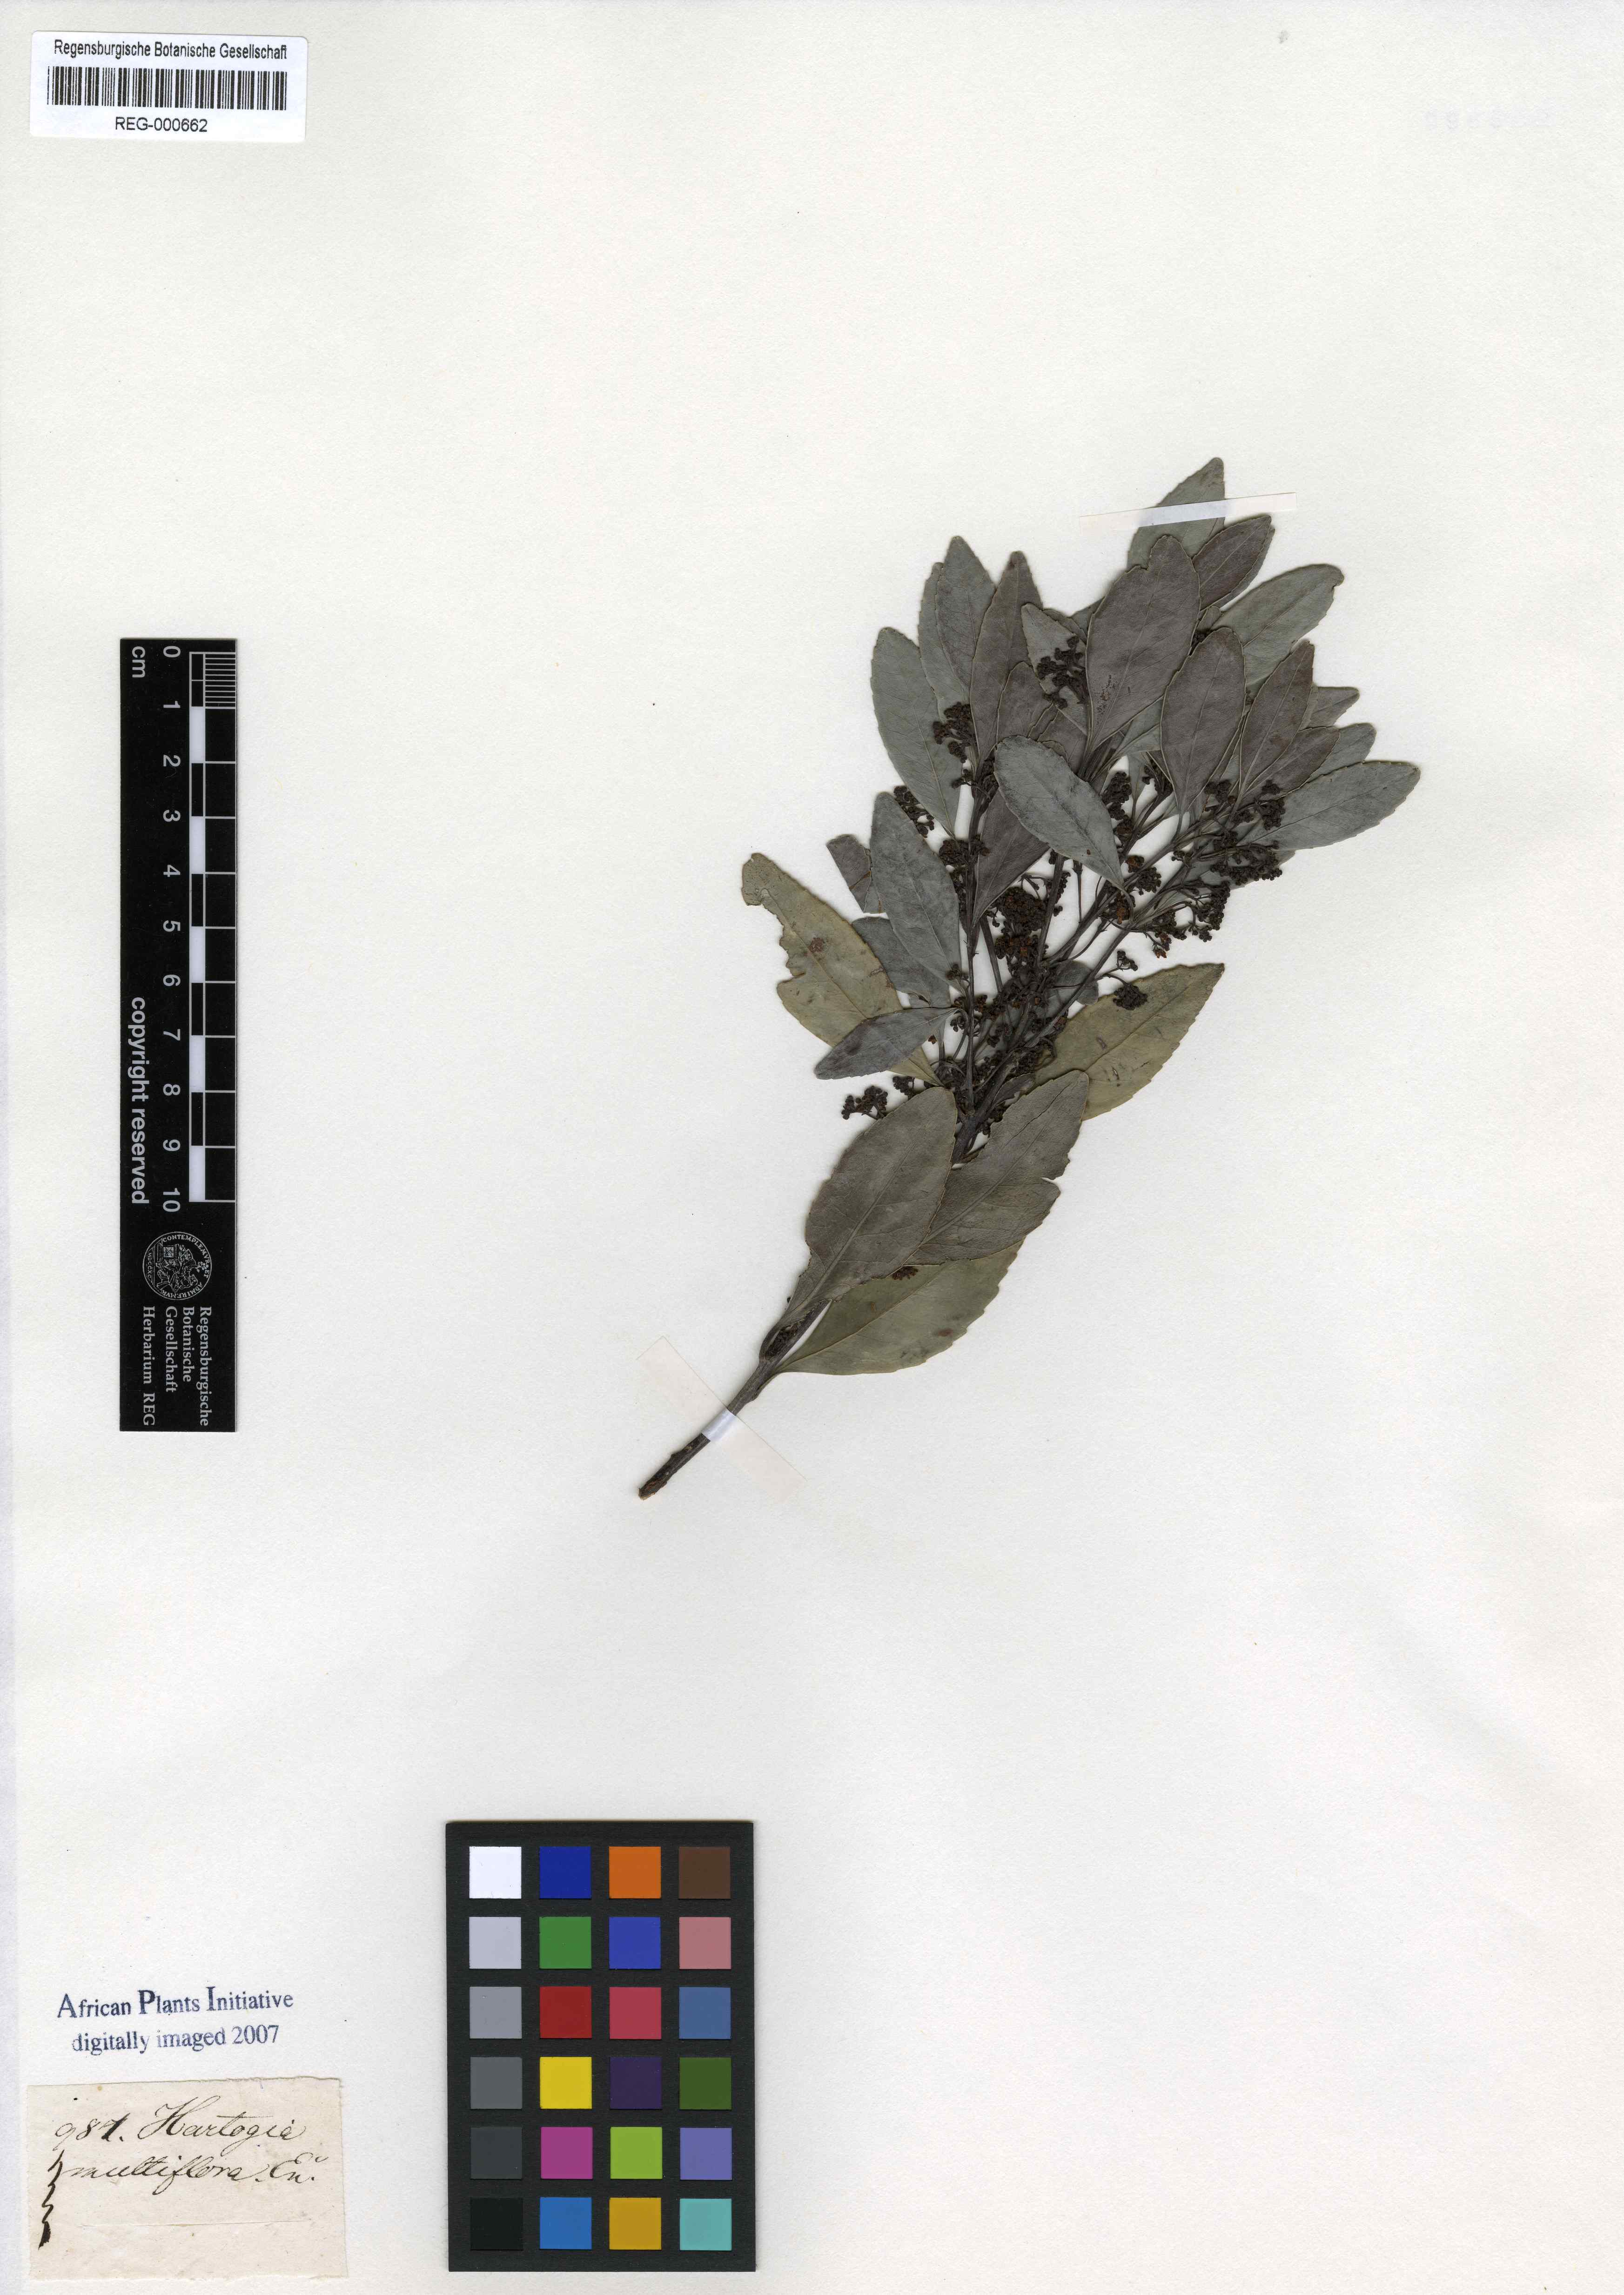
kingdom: Plantae
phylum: Tracheophyta
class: Magnoliopsida
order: Sapindales
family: Rutaceae
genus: Agathosma
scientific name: Agathosma capensis
